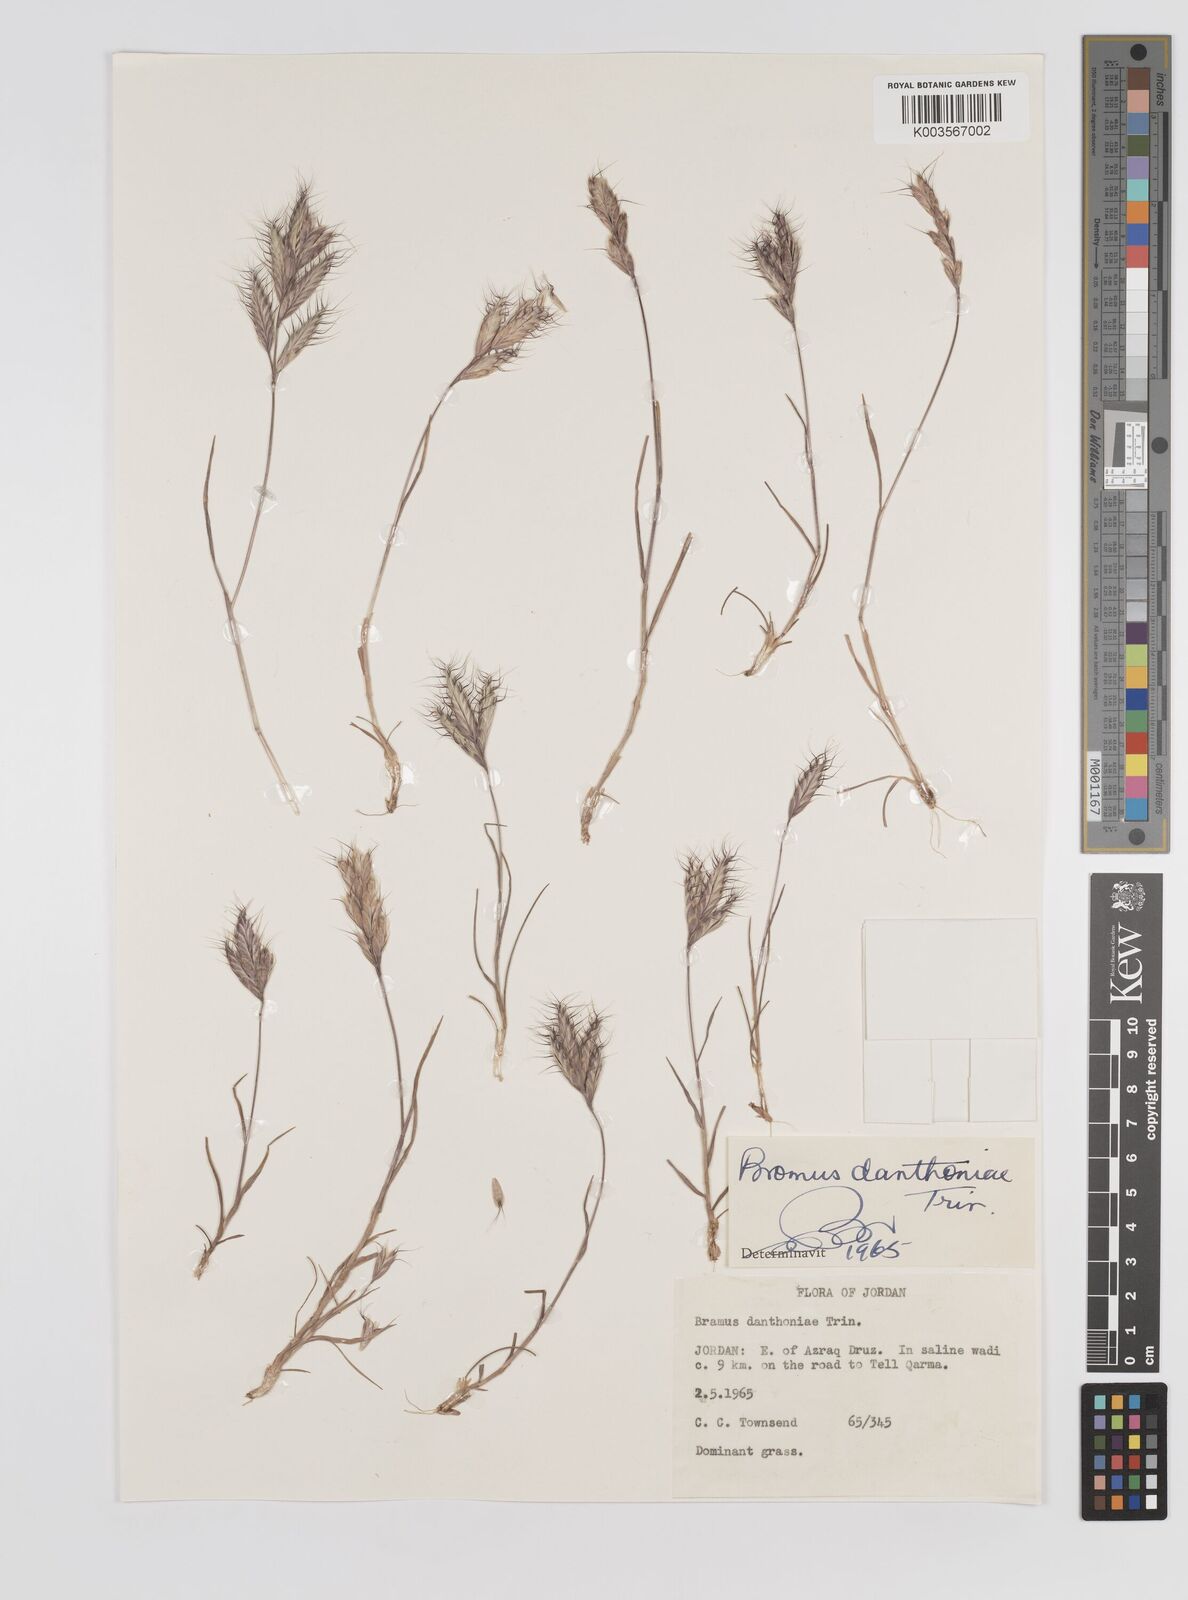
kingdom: Plantae
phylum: Tracheophyta
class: Liliopsida
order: Poales
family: Poaceae
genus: Bromus
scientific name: Bromus danthoniae
